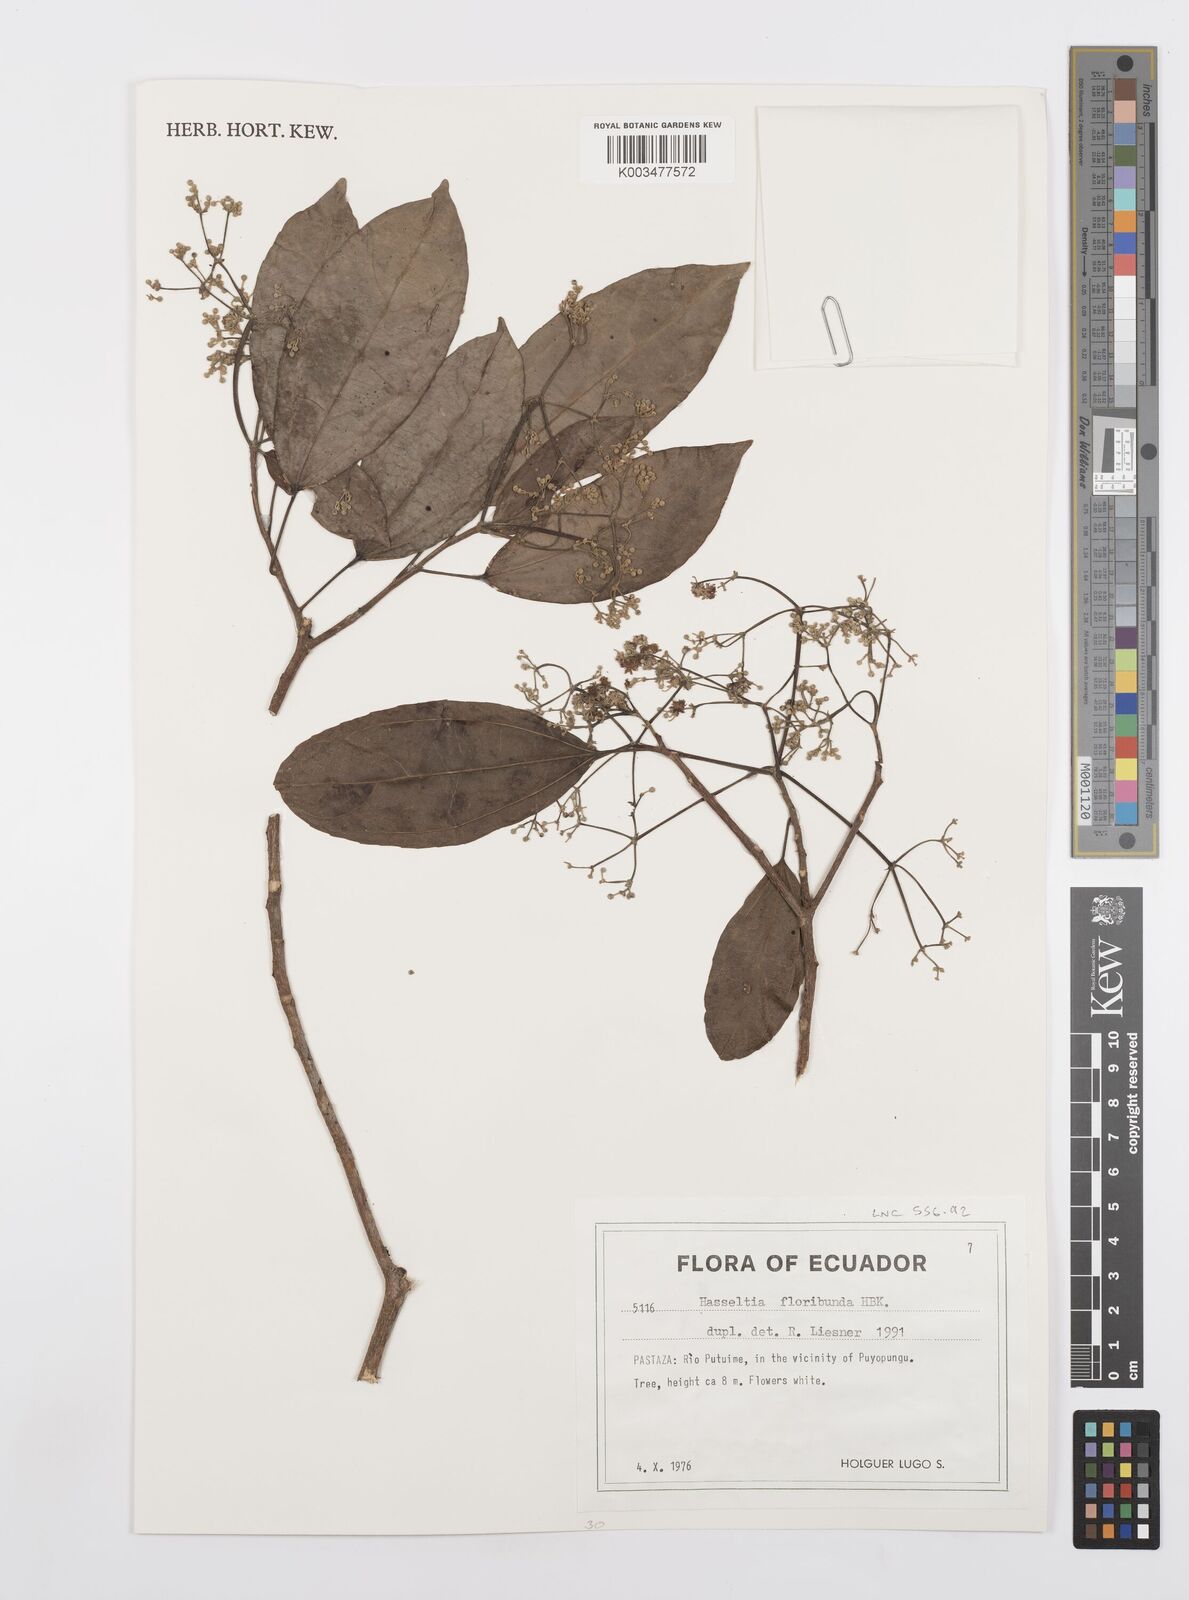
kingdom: Plantae
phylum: Tracheophyta
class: Magnoliopsida
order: Malpighiales
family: Salicaceae
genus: Hasseltia
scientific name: Hasseltia floribunda
